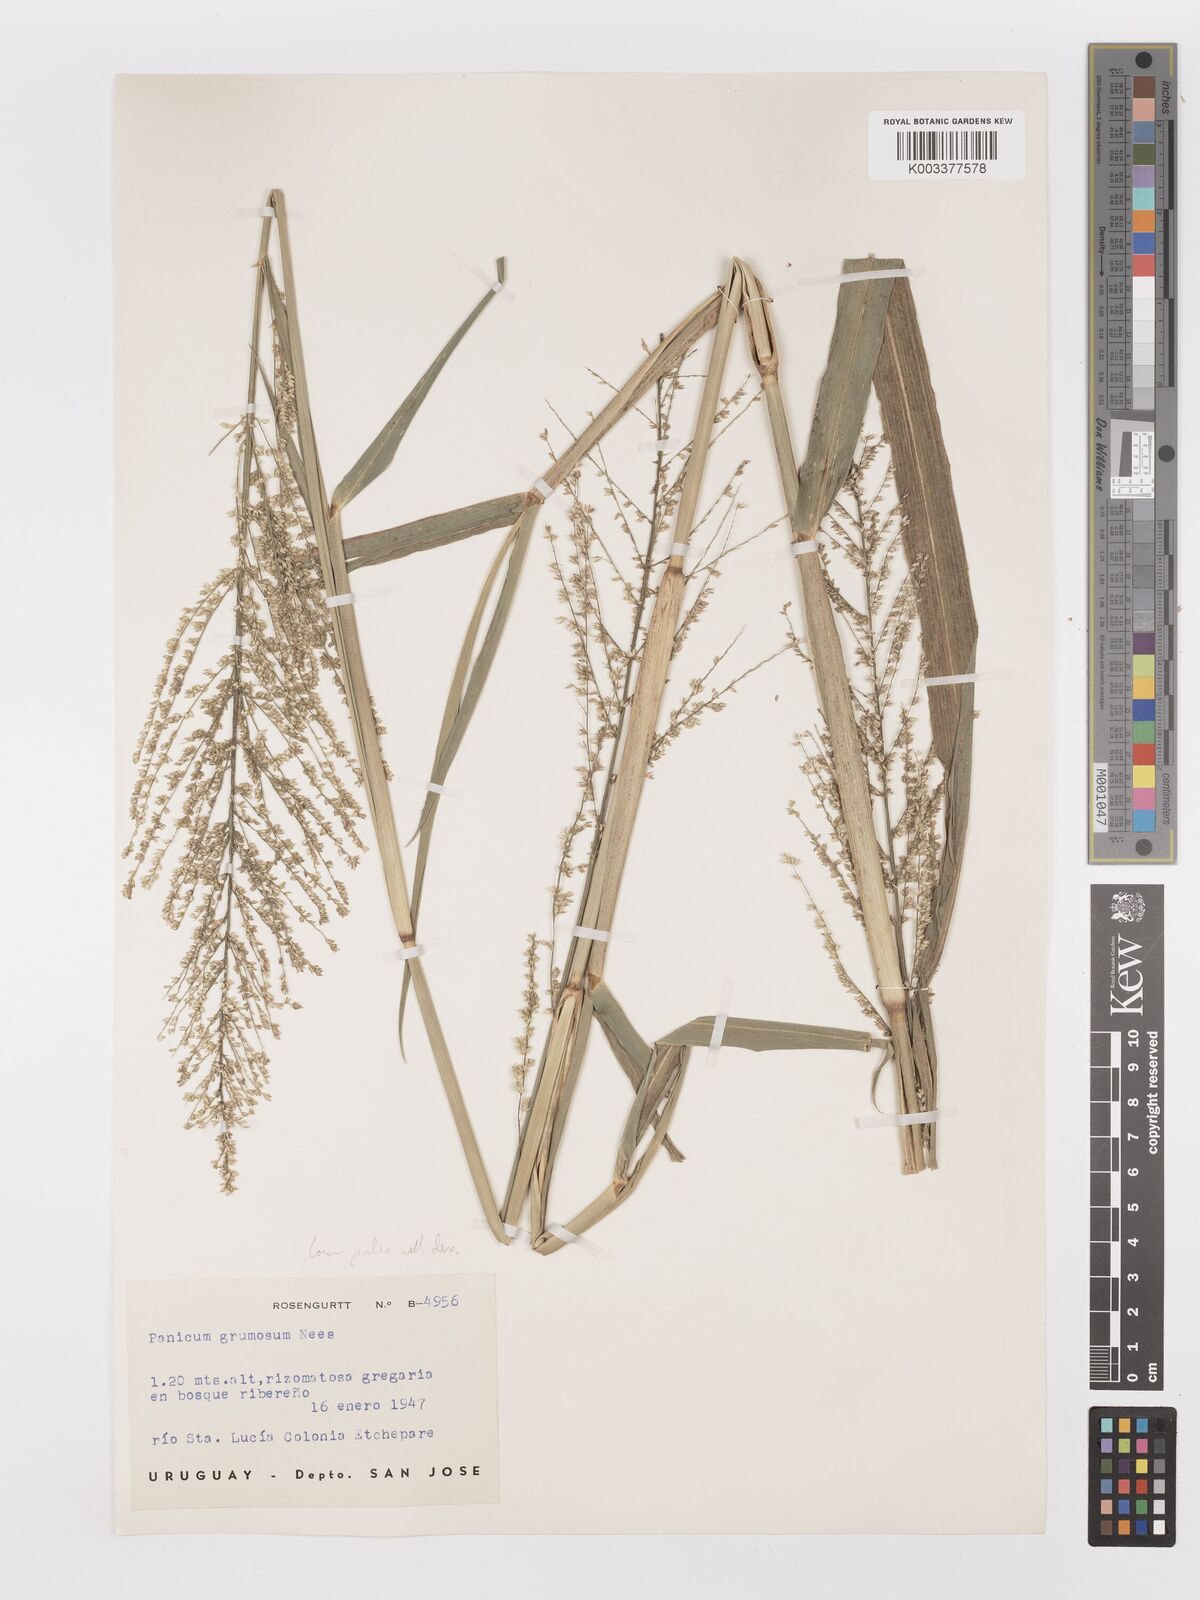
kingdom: Plantae
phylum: Tracheophyta
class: Liliopsida
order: Poales
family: Poaceae
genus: Urochloa
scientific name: Urochloa reptans
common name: Sprawling signalgrass
